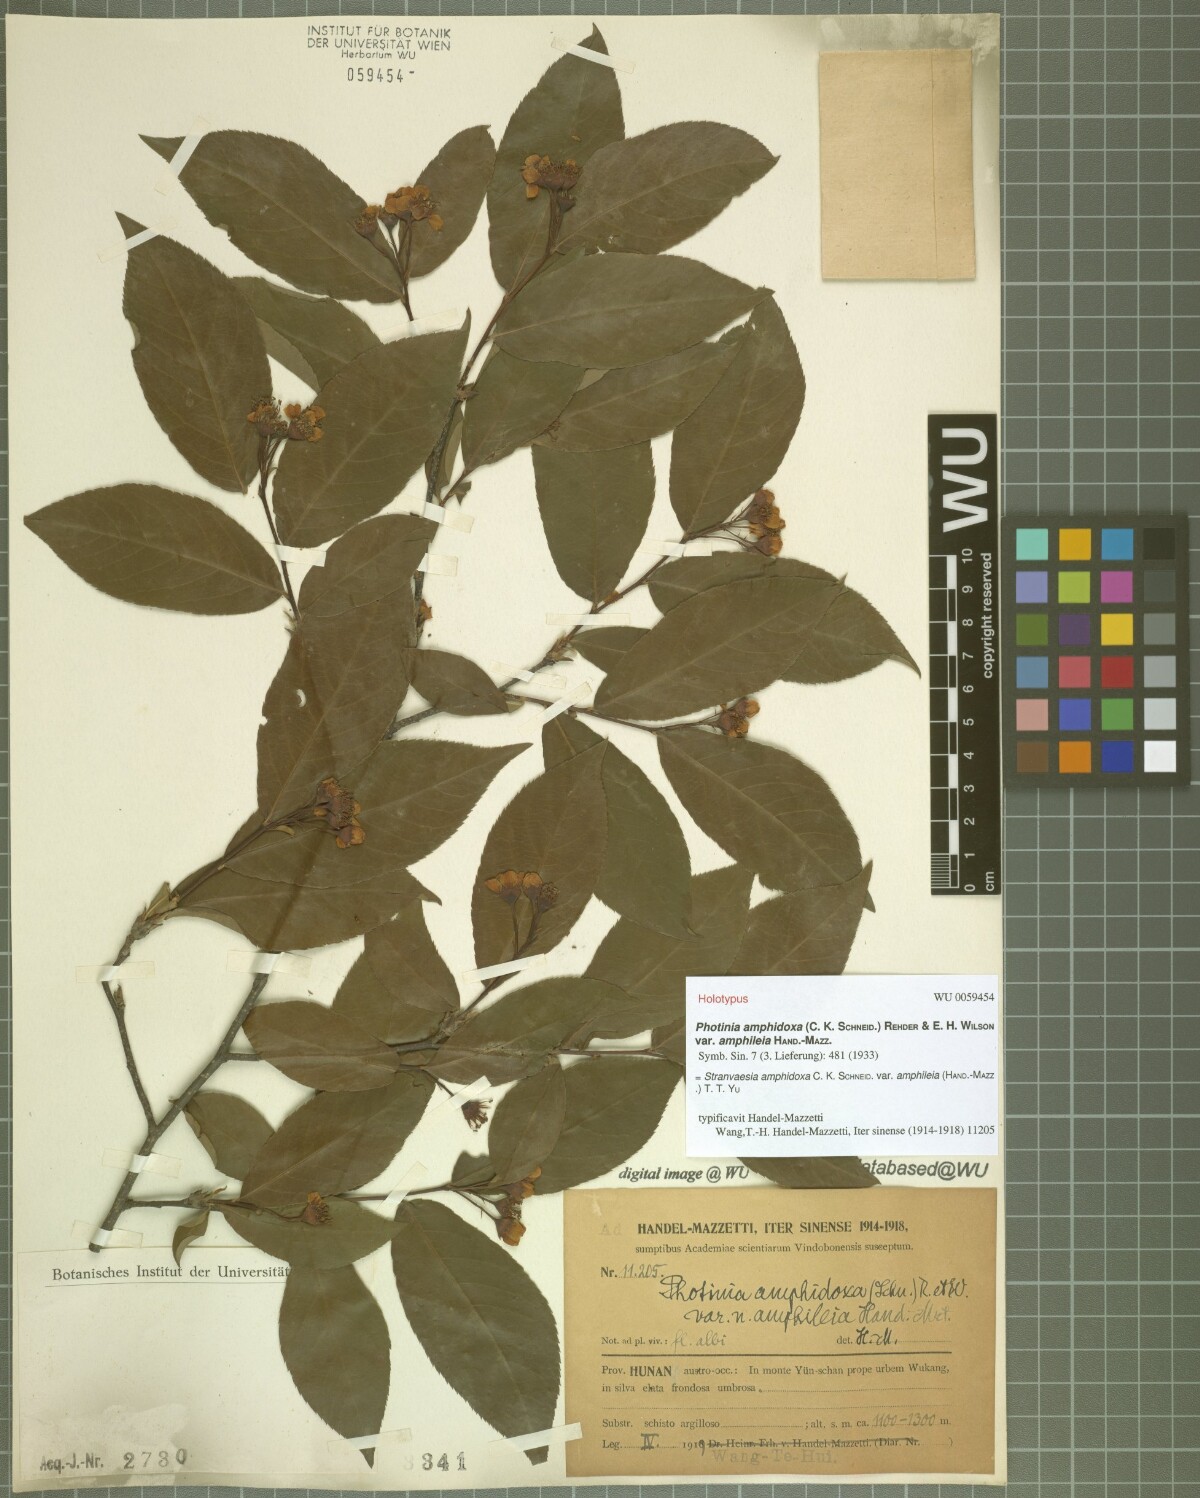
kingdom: Plantae
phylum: Tracheophyta
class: Magnoliopsida
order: Rosales
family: Rosaceae
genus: Pourthiaea
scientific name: Pourthiaea amphidoxa
